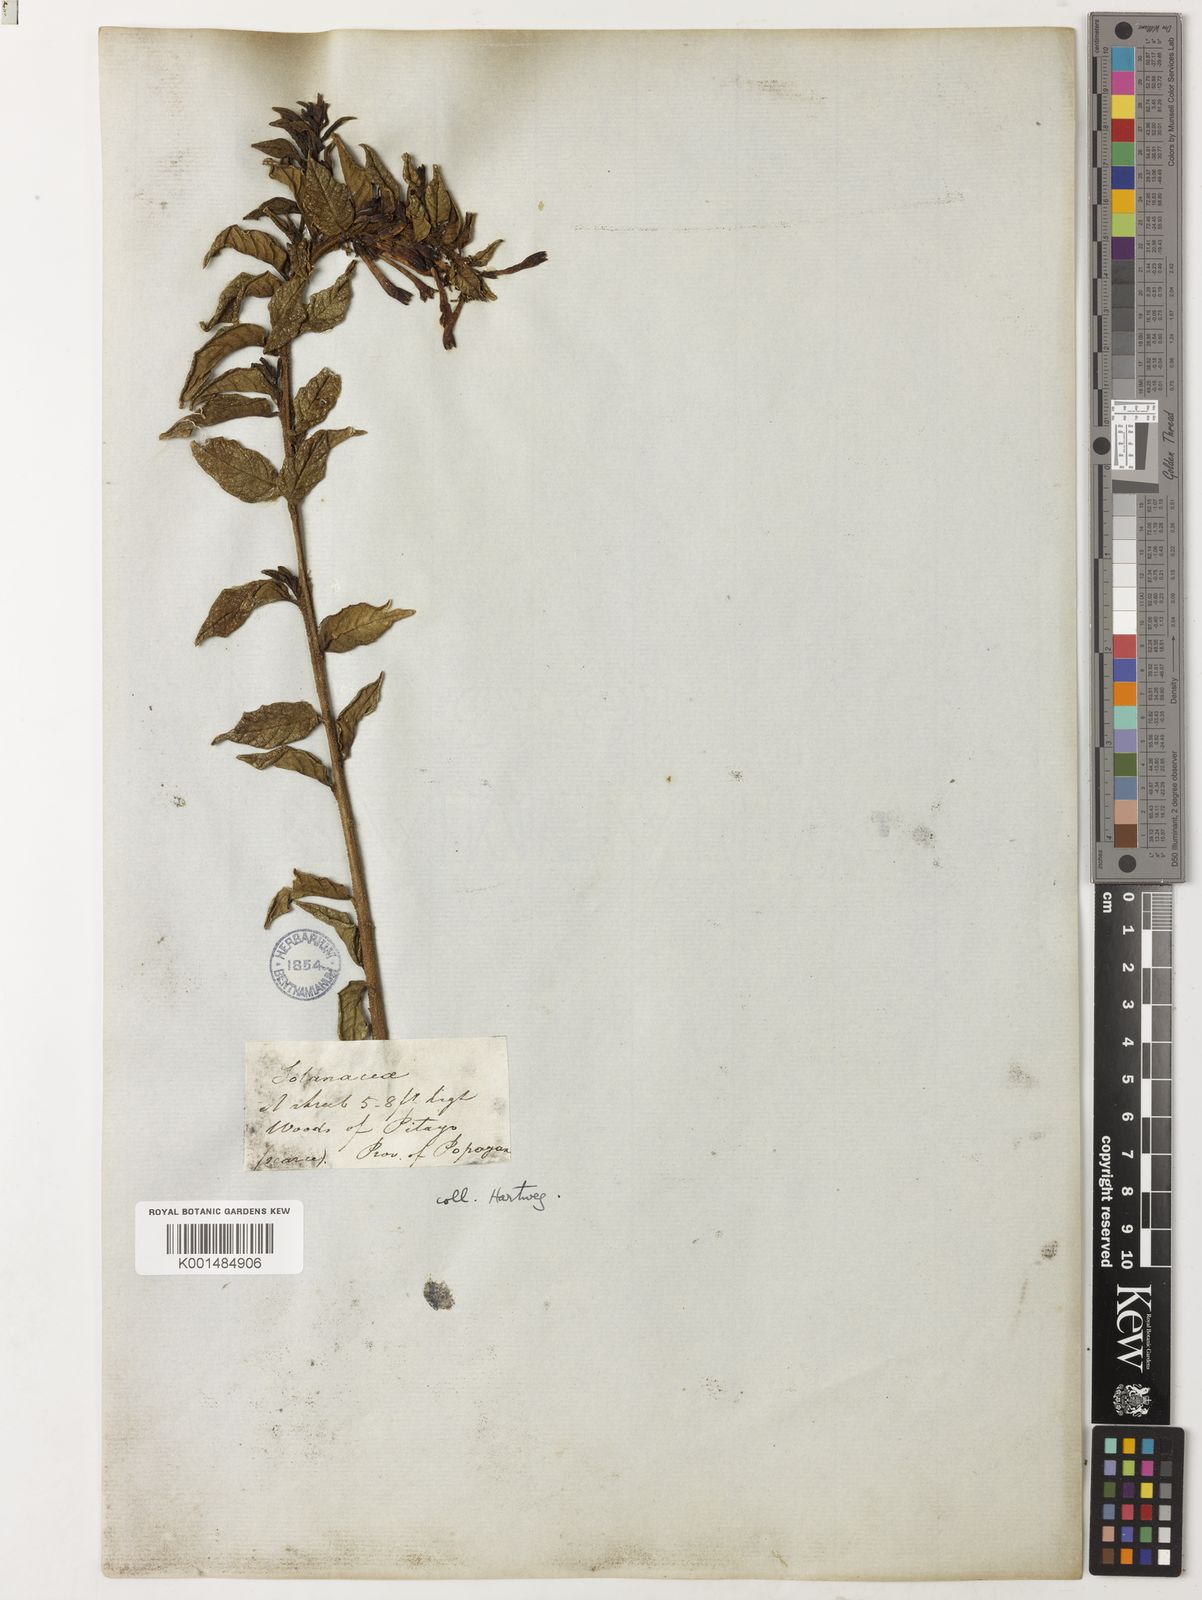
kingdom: Plantae
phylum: Tracheophyta
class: Magnoliopsida
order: Solanales
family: Solanaceae
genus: Cestrum
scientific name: Cestrum rigidifolium
